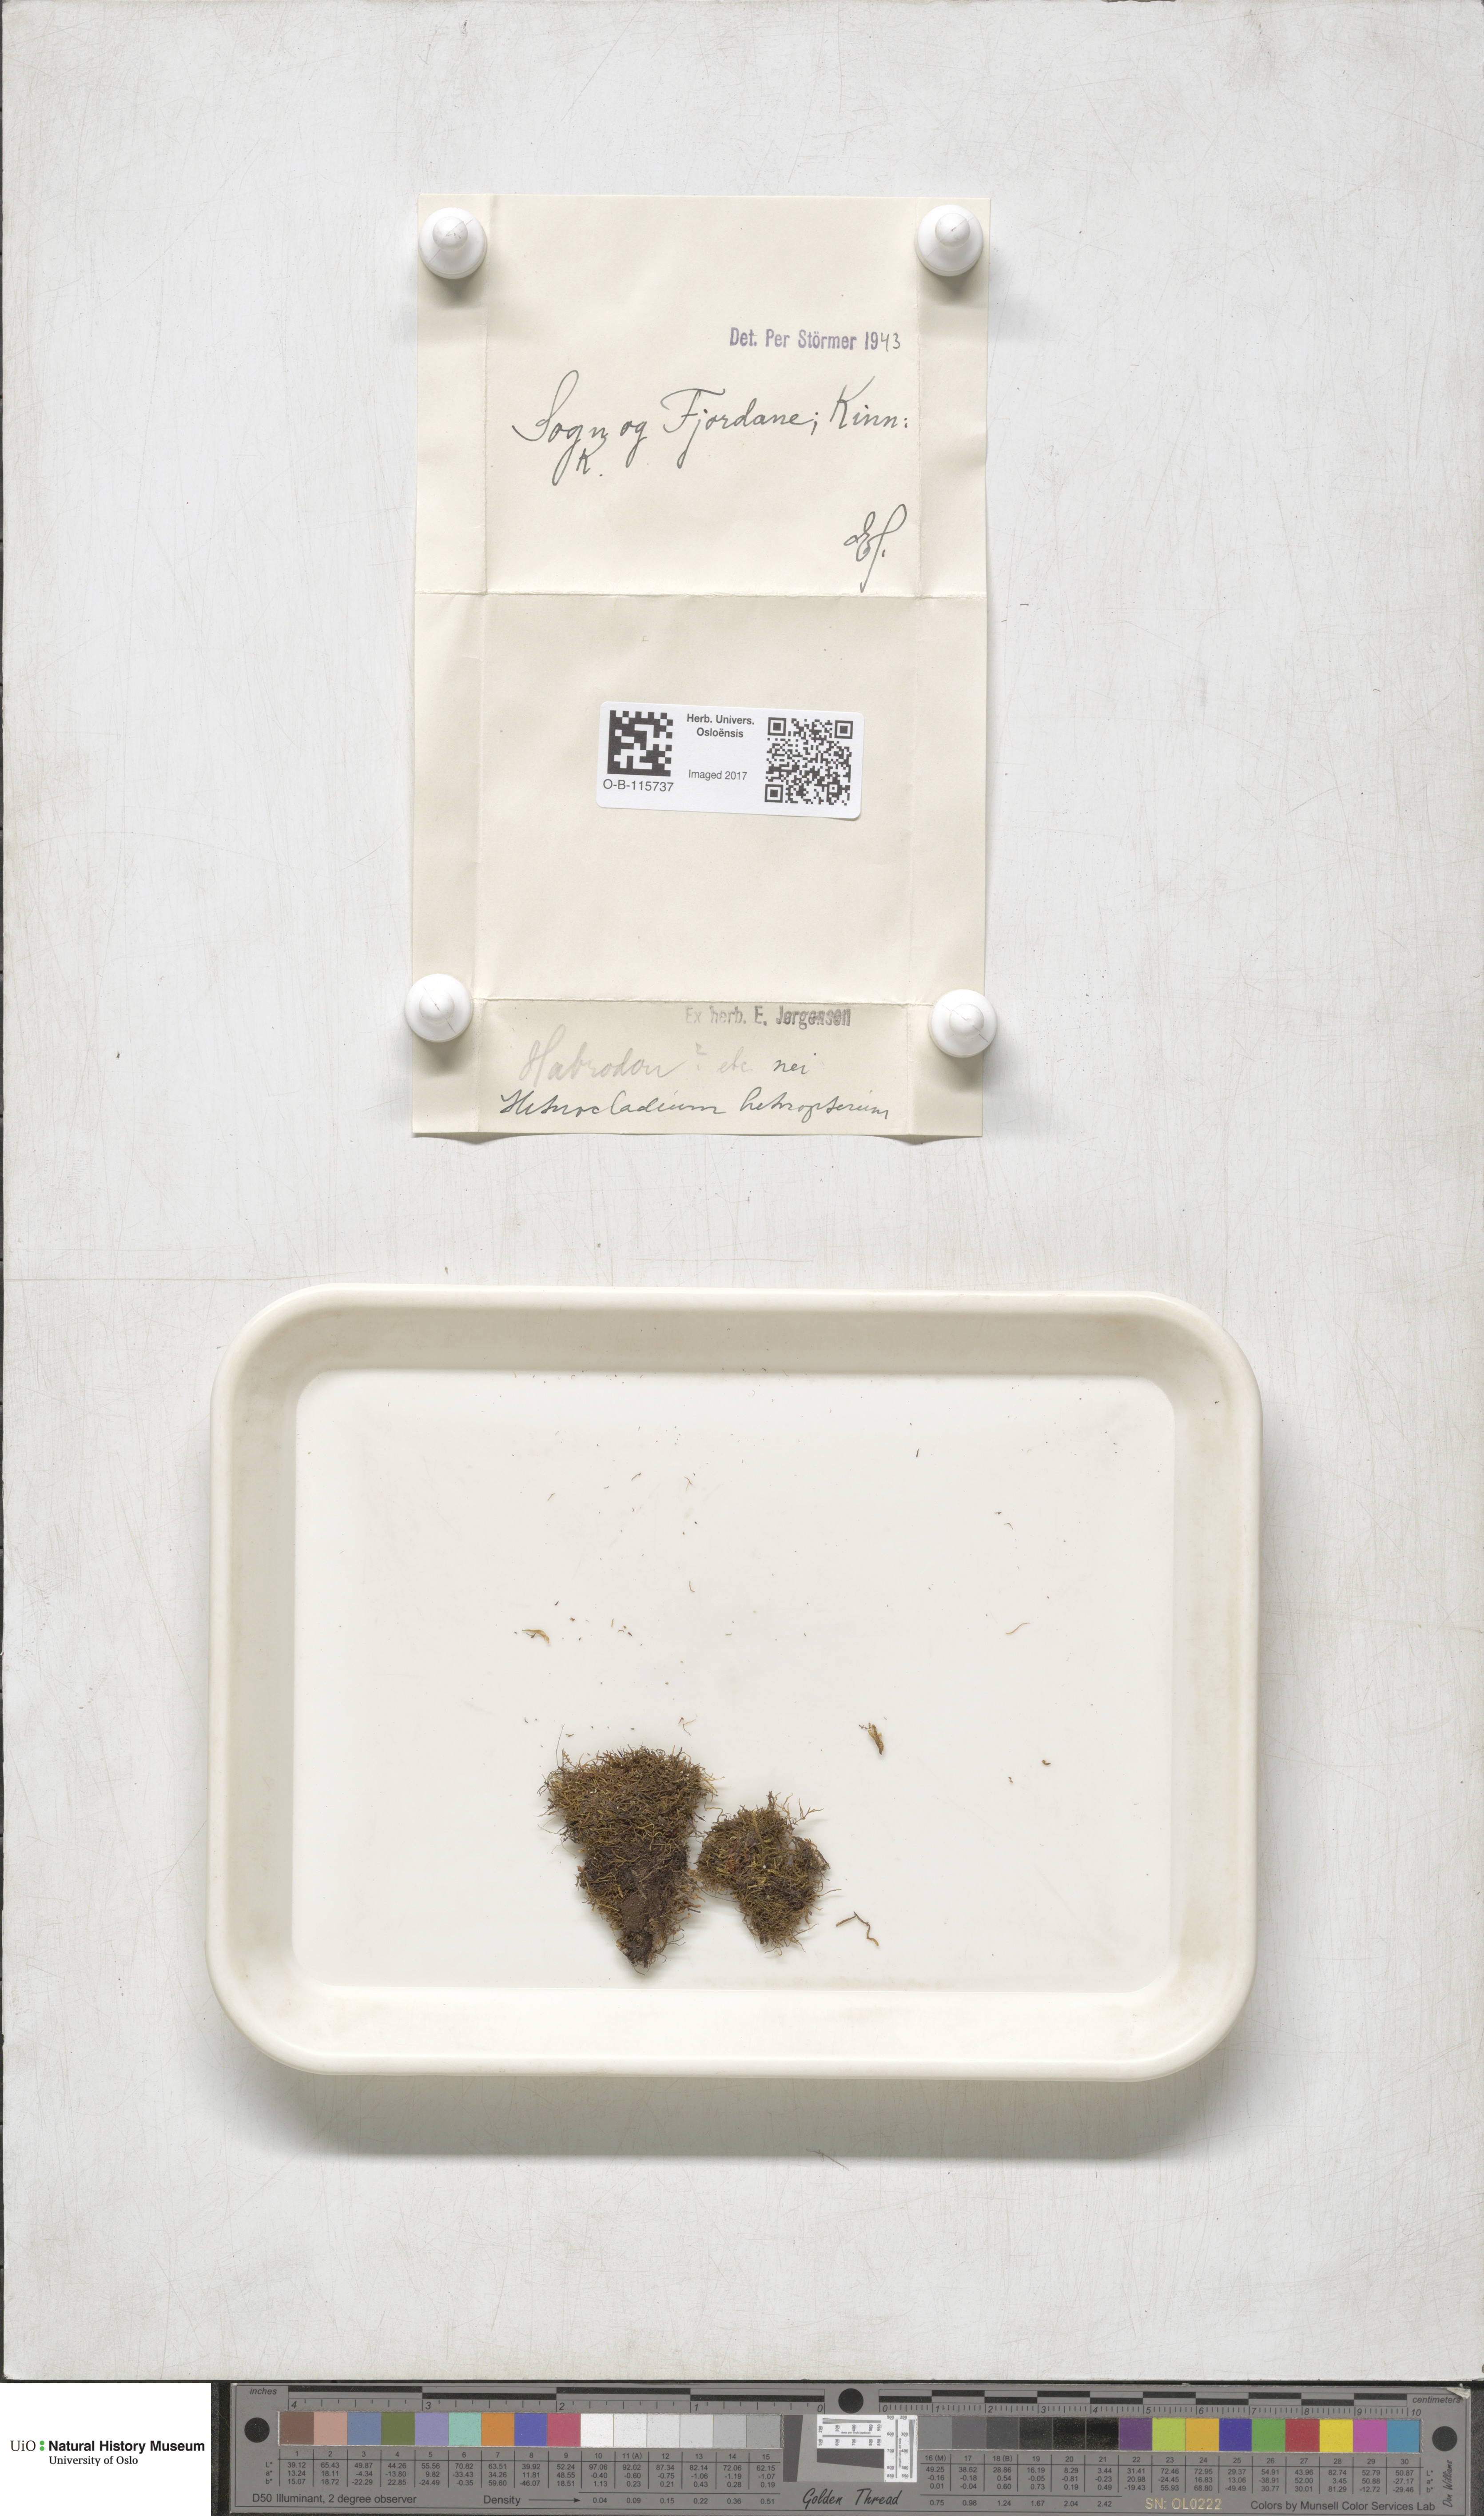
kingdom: Plantae
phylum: Bryophyta
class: Bryopsida
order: Hypnales
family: Lembophyllaceae
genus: Heterocladium
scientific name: Heterocladium heteropterum
